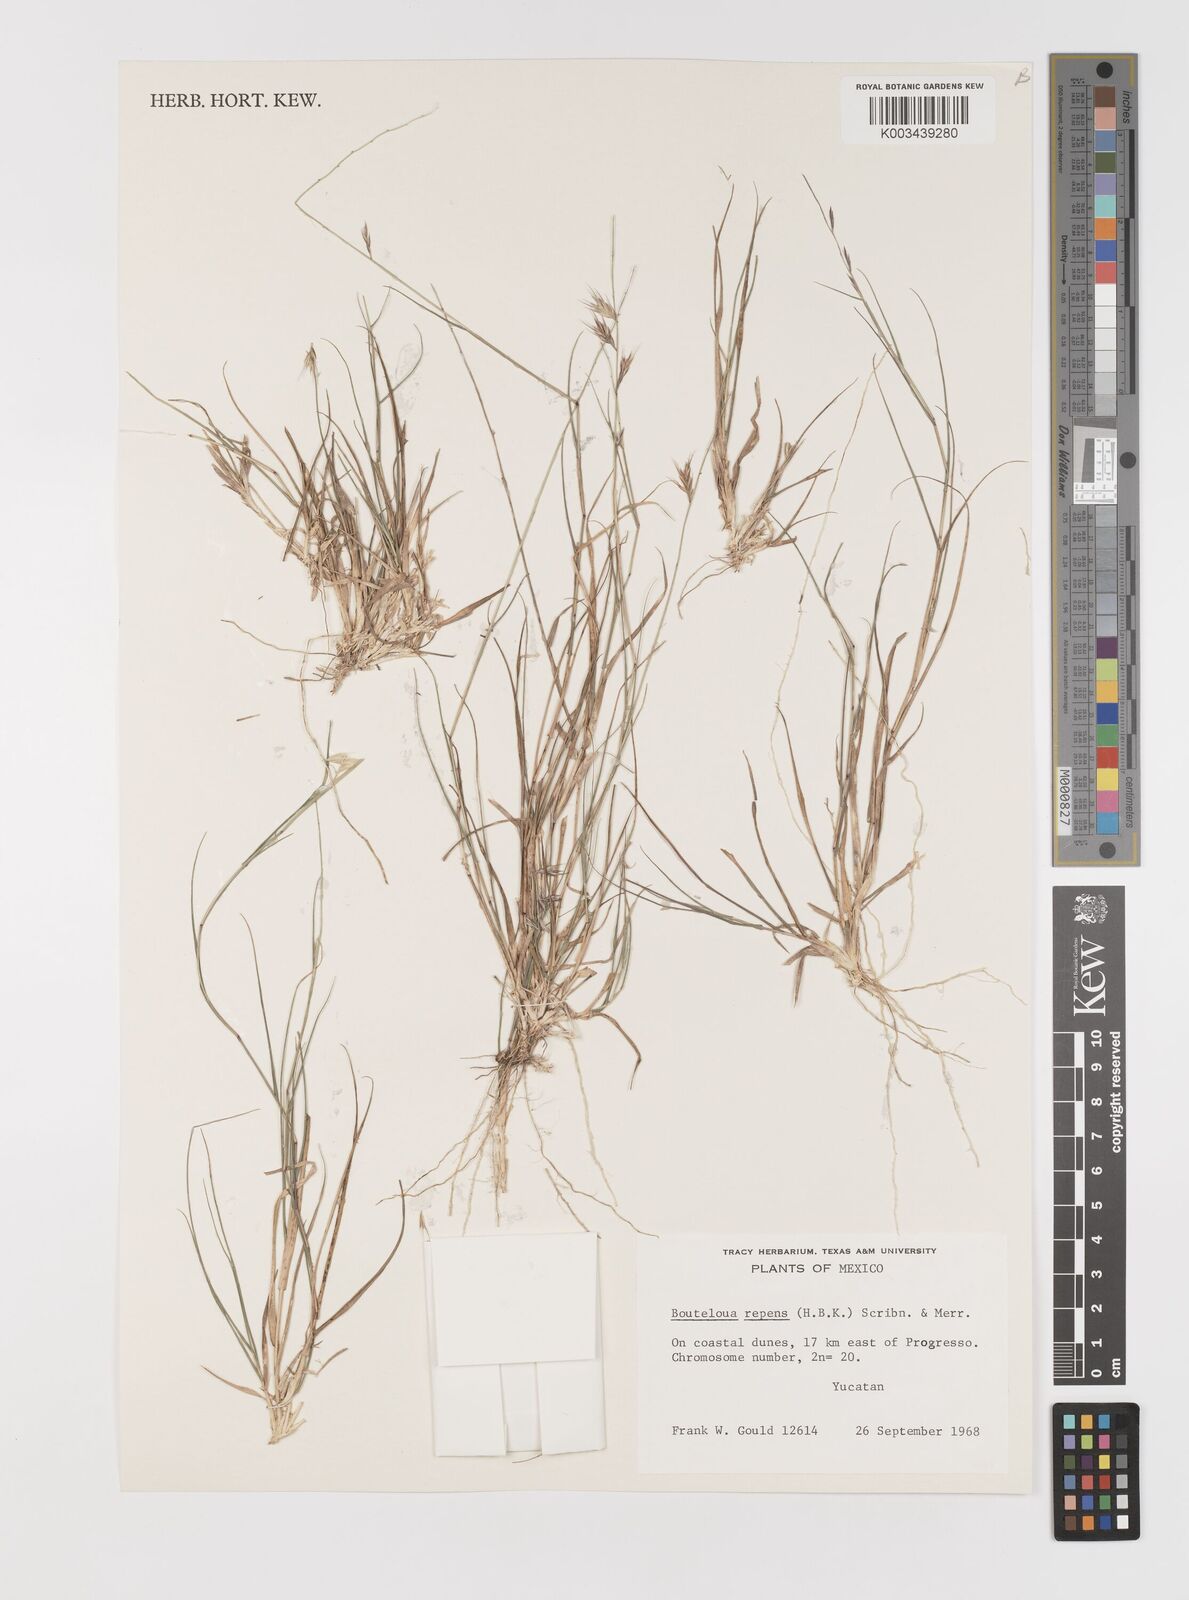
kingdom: Plantae
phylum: Tracheophyta
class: Liliopsida
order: Poales
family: Poaceae
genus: Bouteloua
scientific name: Bouteloua repens
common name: Slender grama
